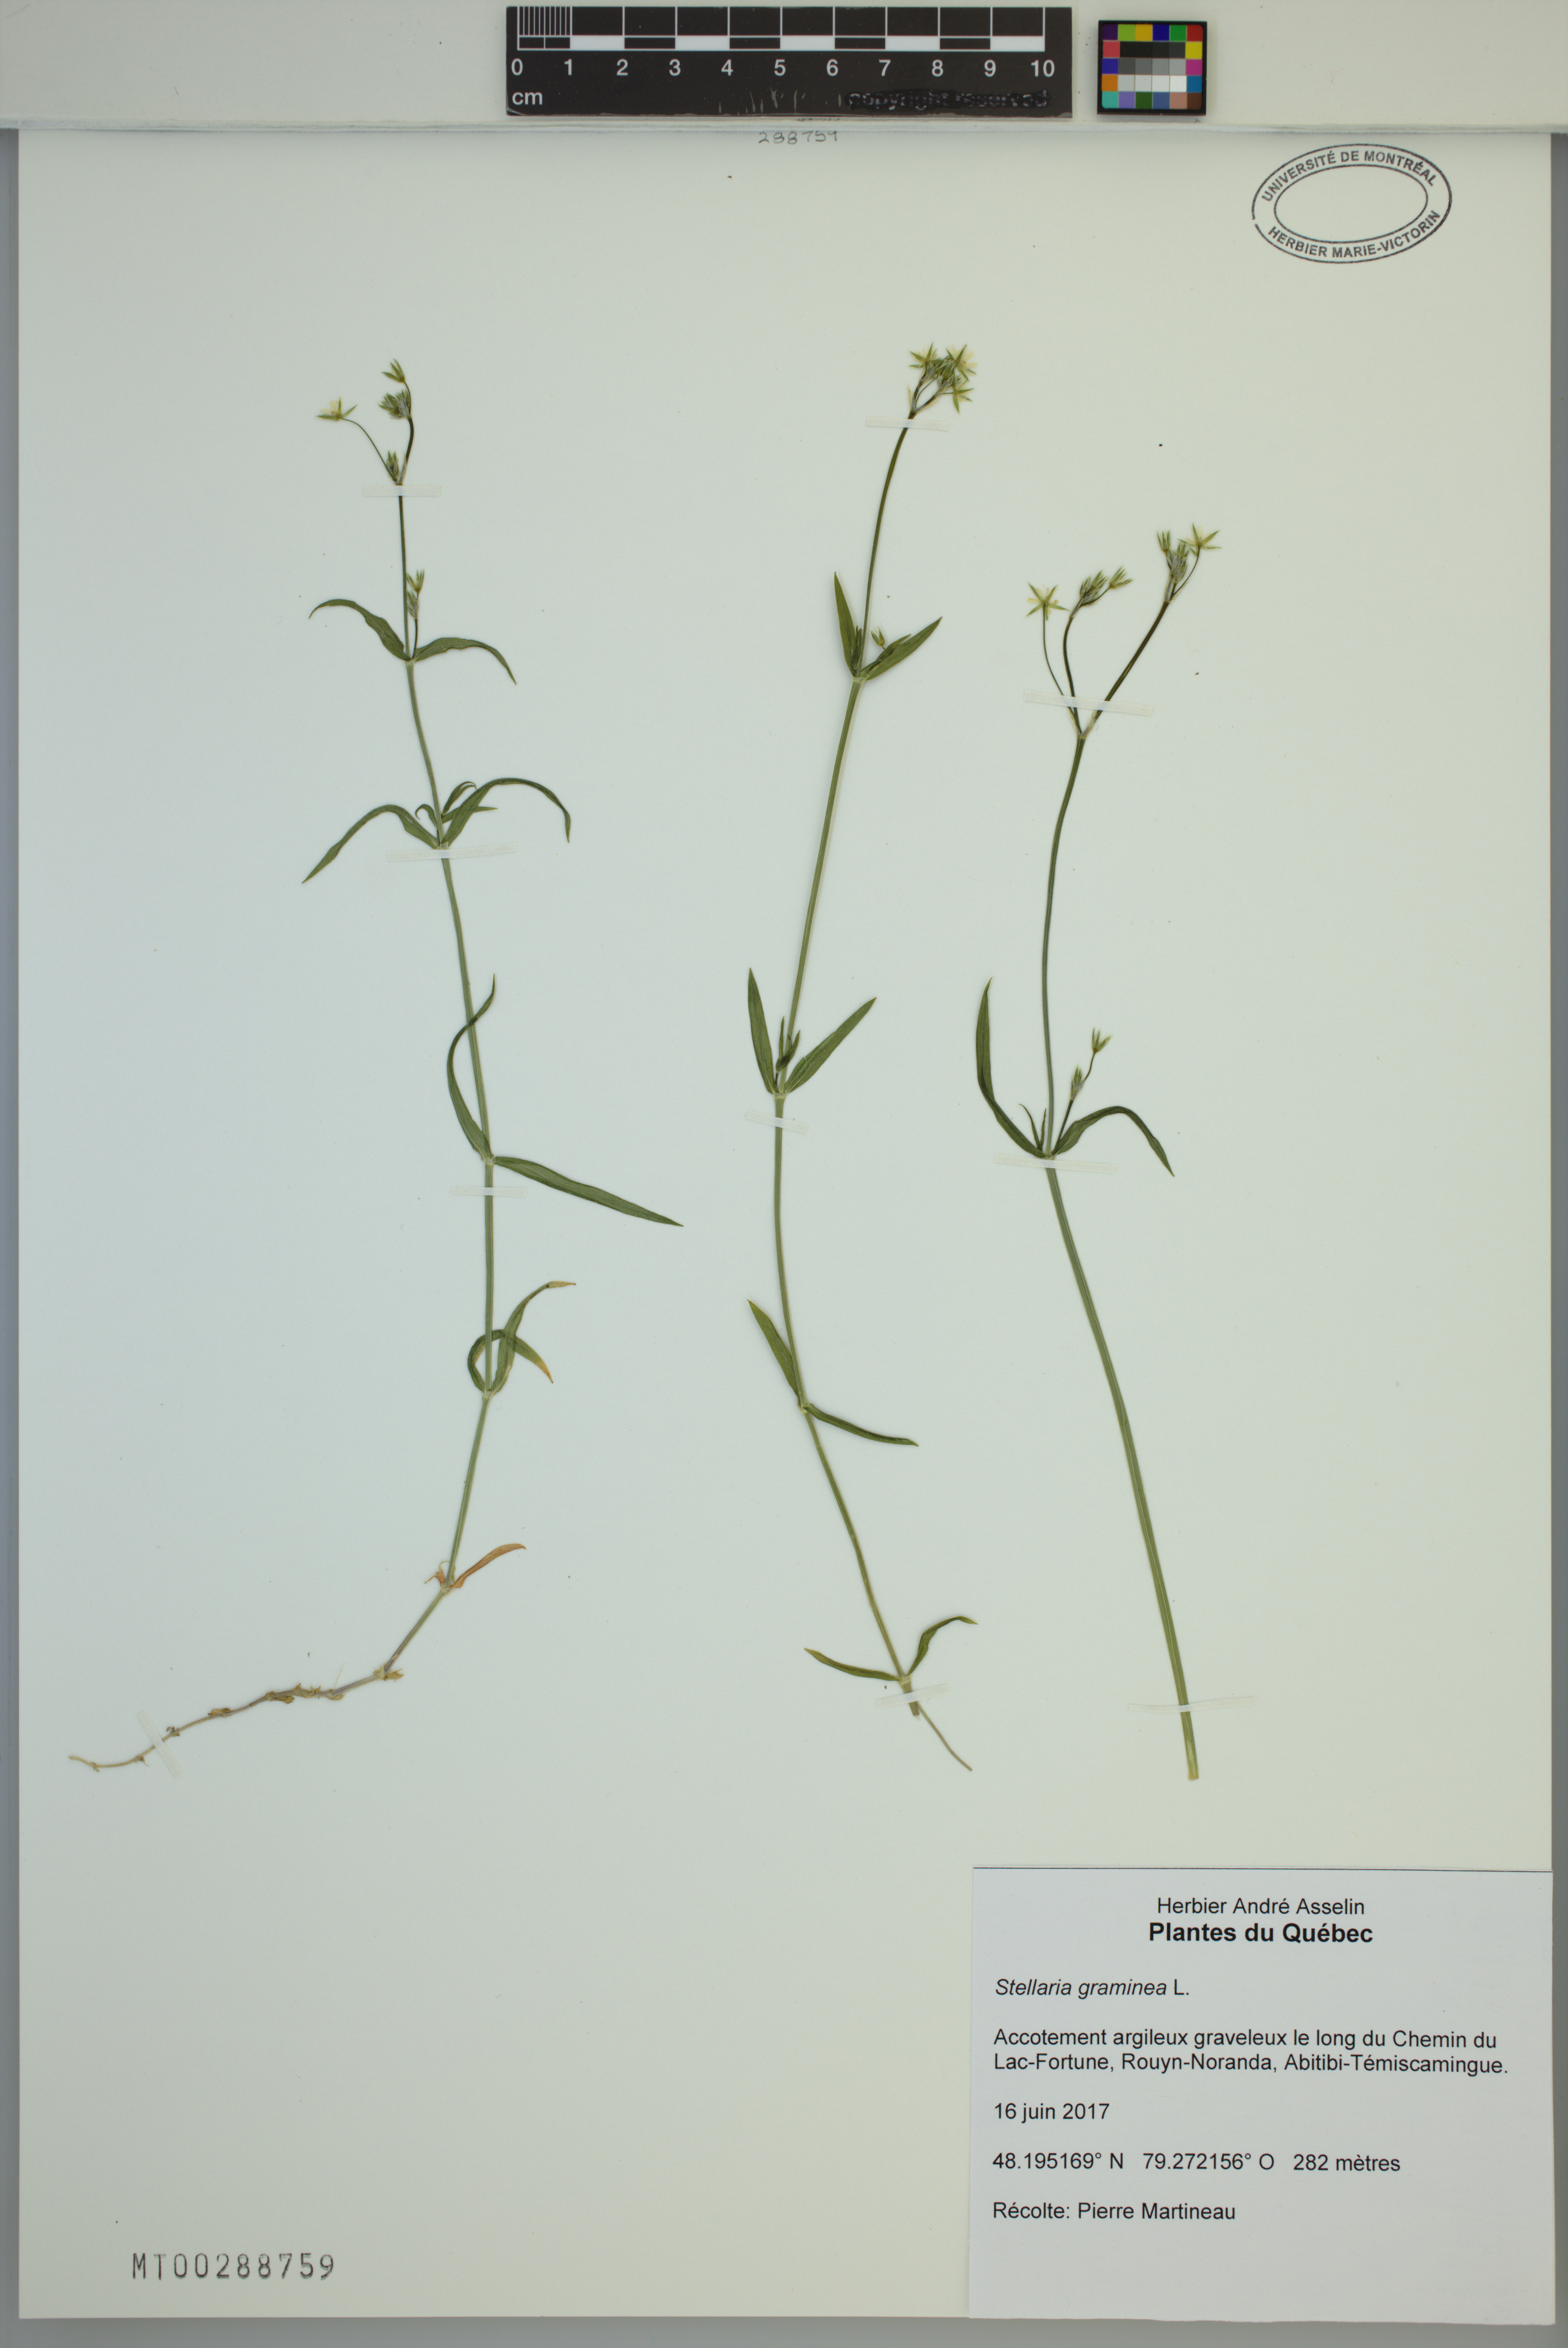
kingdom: Plantae
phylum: Tracheophyta
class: Magnoliopsida
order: Caryophyllales
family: Caryophyllaceae
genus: Stellaria
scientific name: Stellaria graminea
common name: Grass-like starwort
